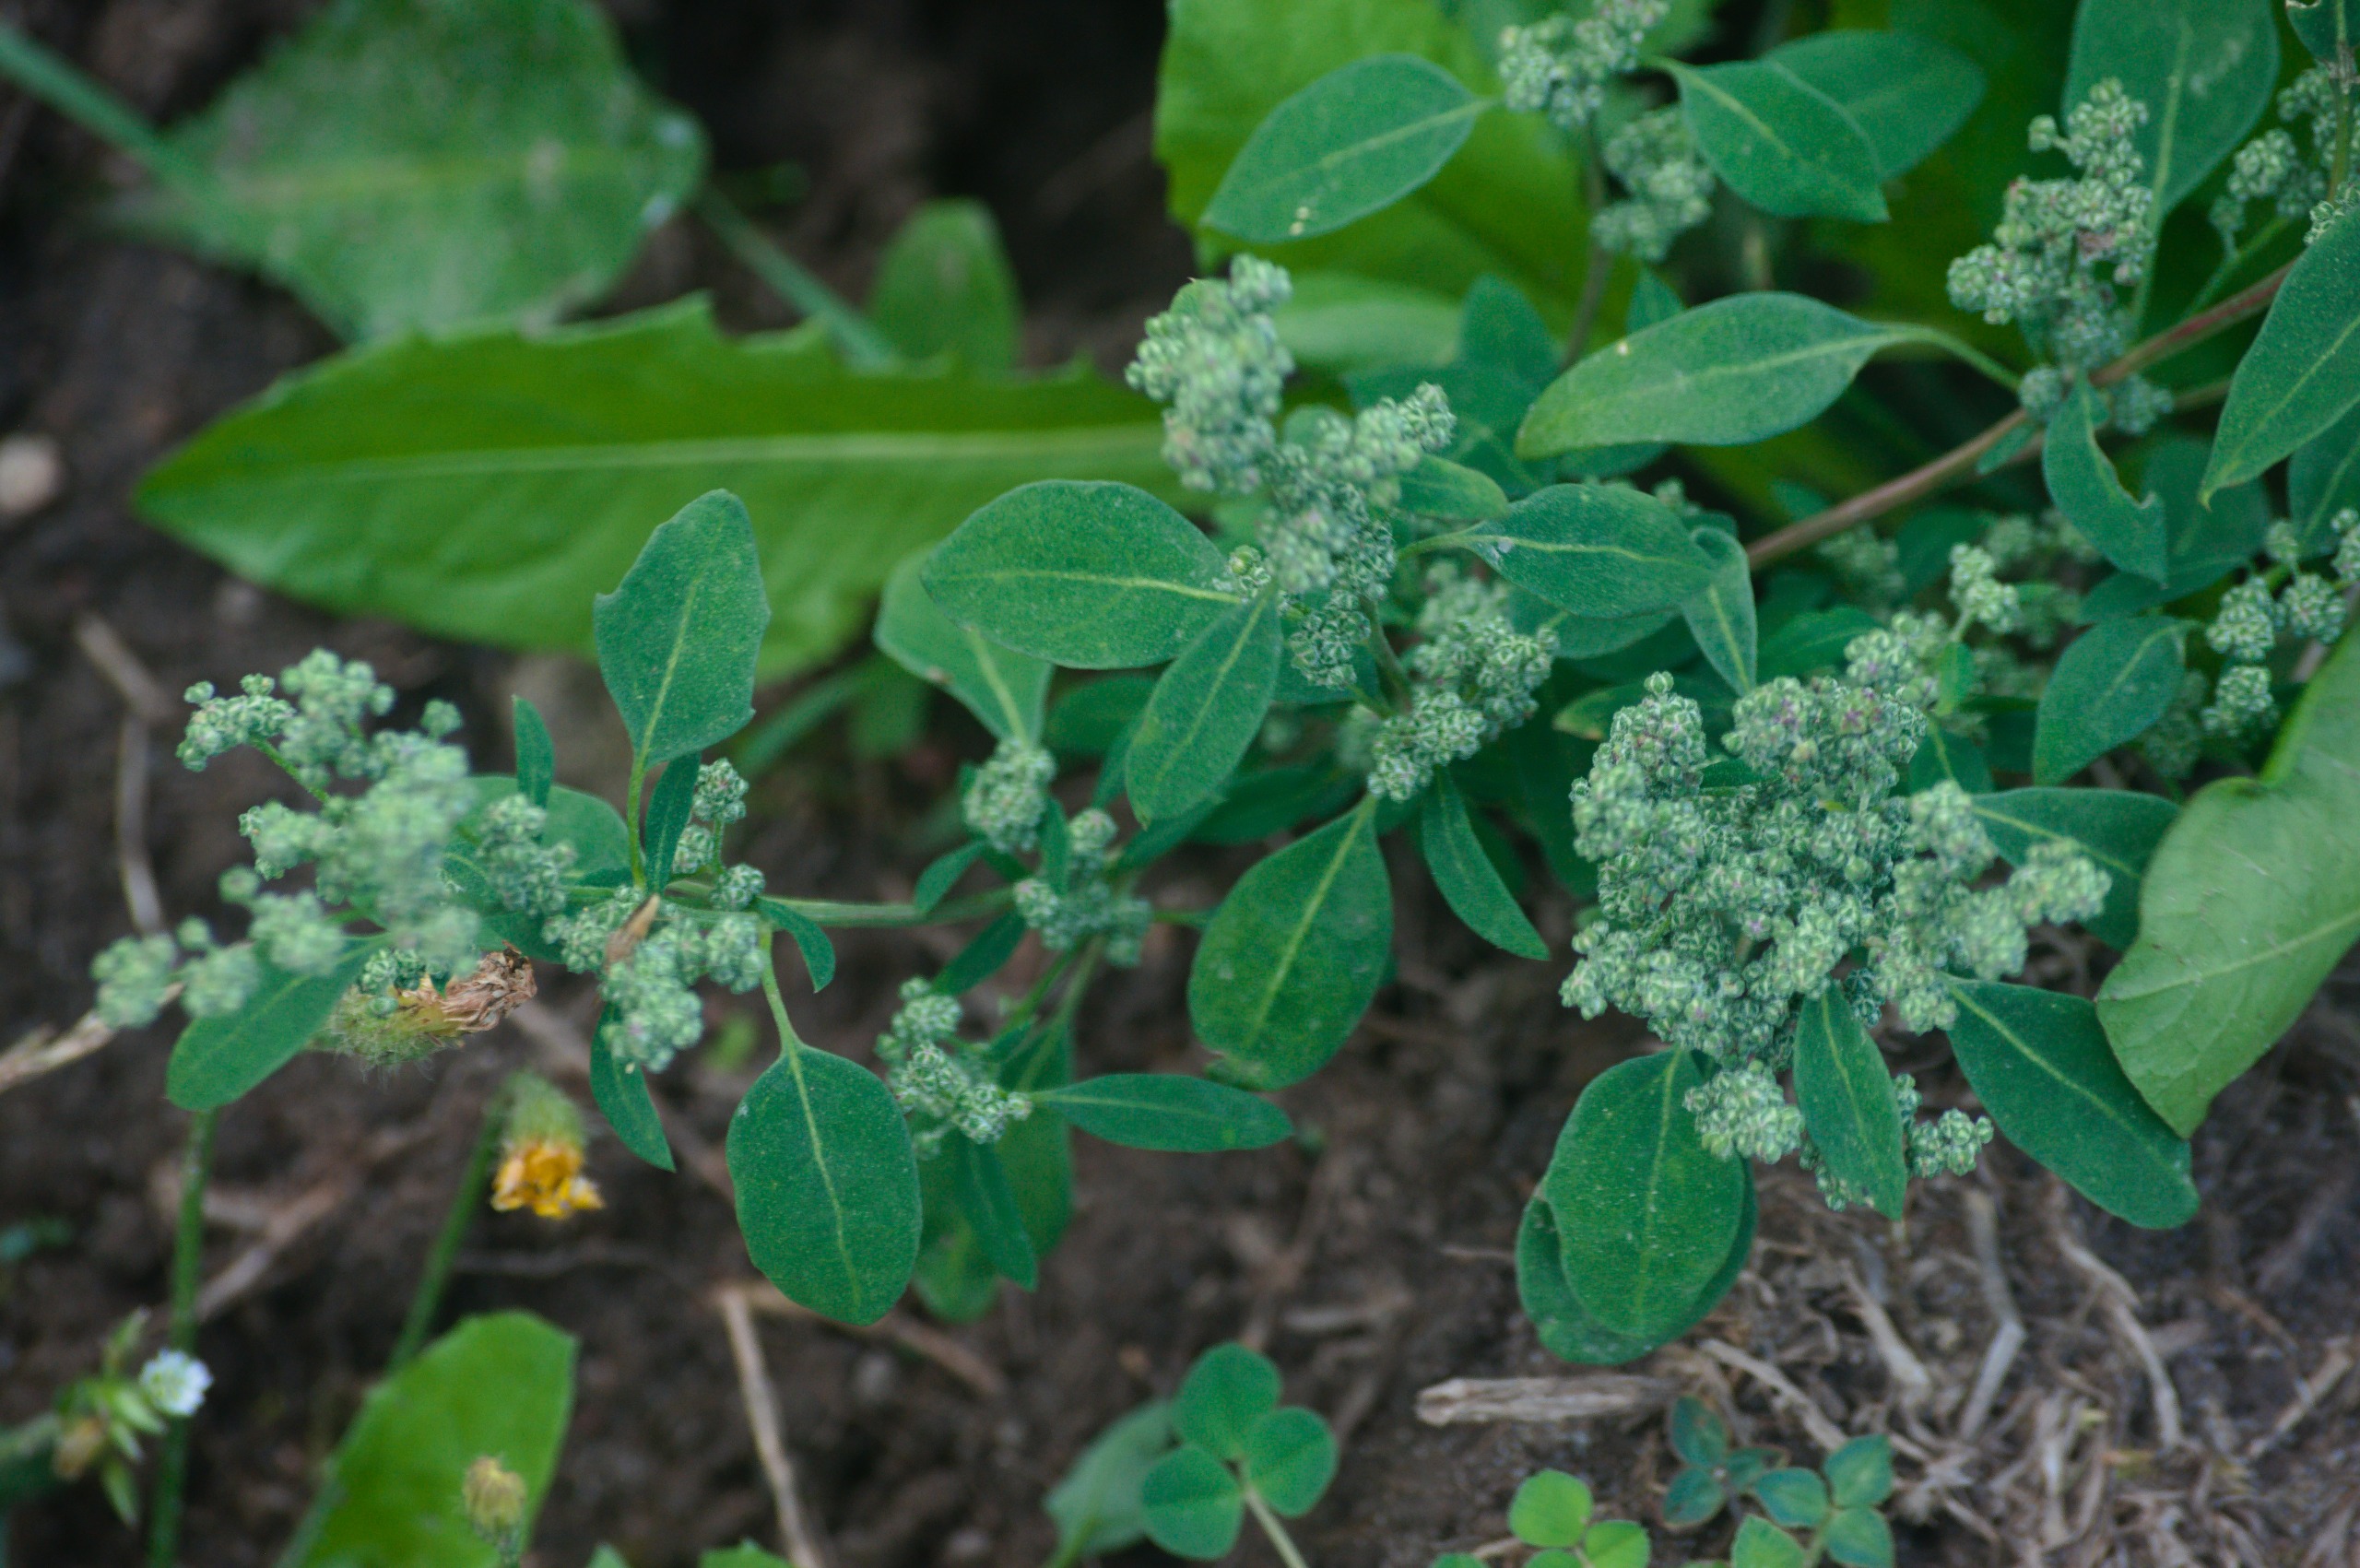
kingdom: Plantae
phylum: Tracheophyta
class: Magnoliopsida
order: Caryophyllales
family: Amaranthaceae
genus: Chenopodium
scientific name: Chenopodium album
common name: Hvidmelet gåsefod
